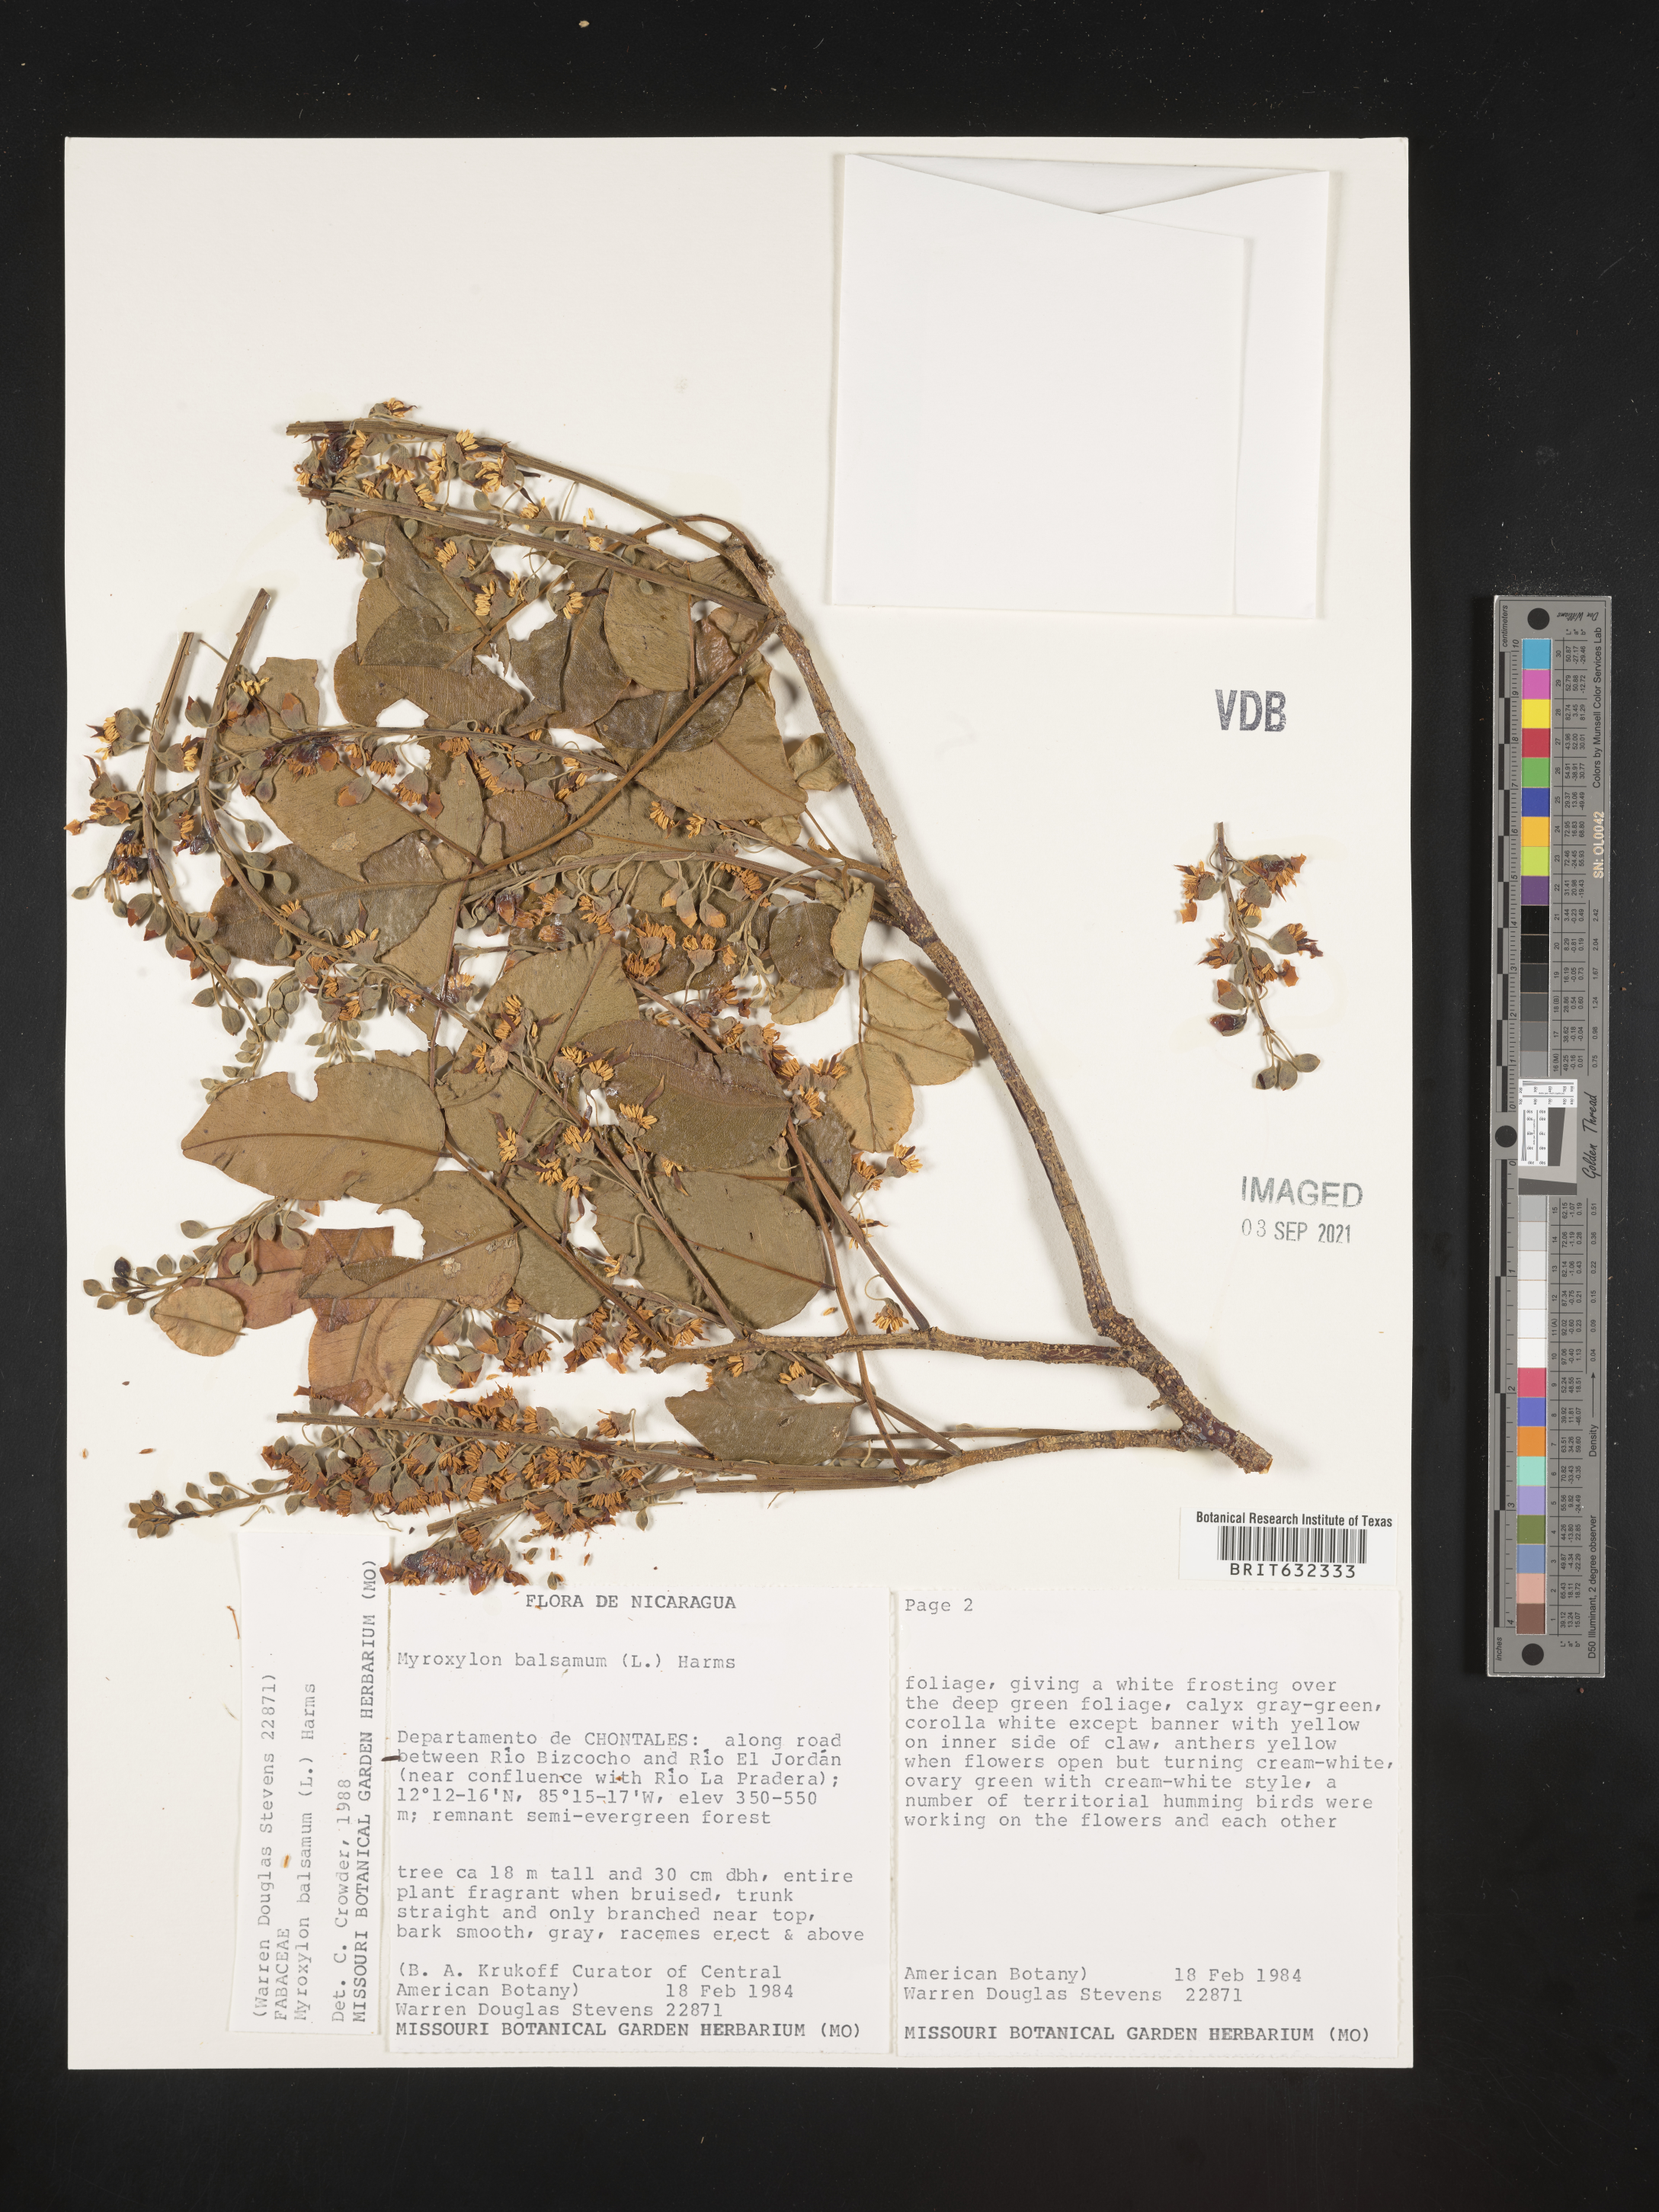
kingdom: Plantae
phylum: Tracheophyta
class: Magnoliopsida
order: Fabales
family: Fabaceae
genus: Myroxylon
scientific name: Myroxylon
